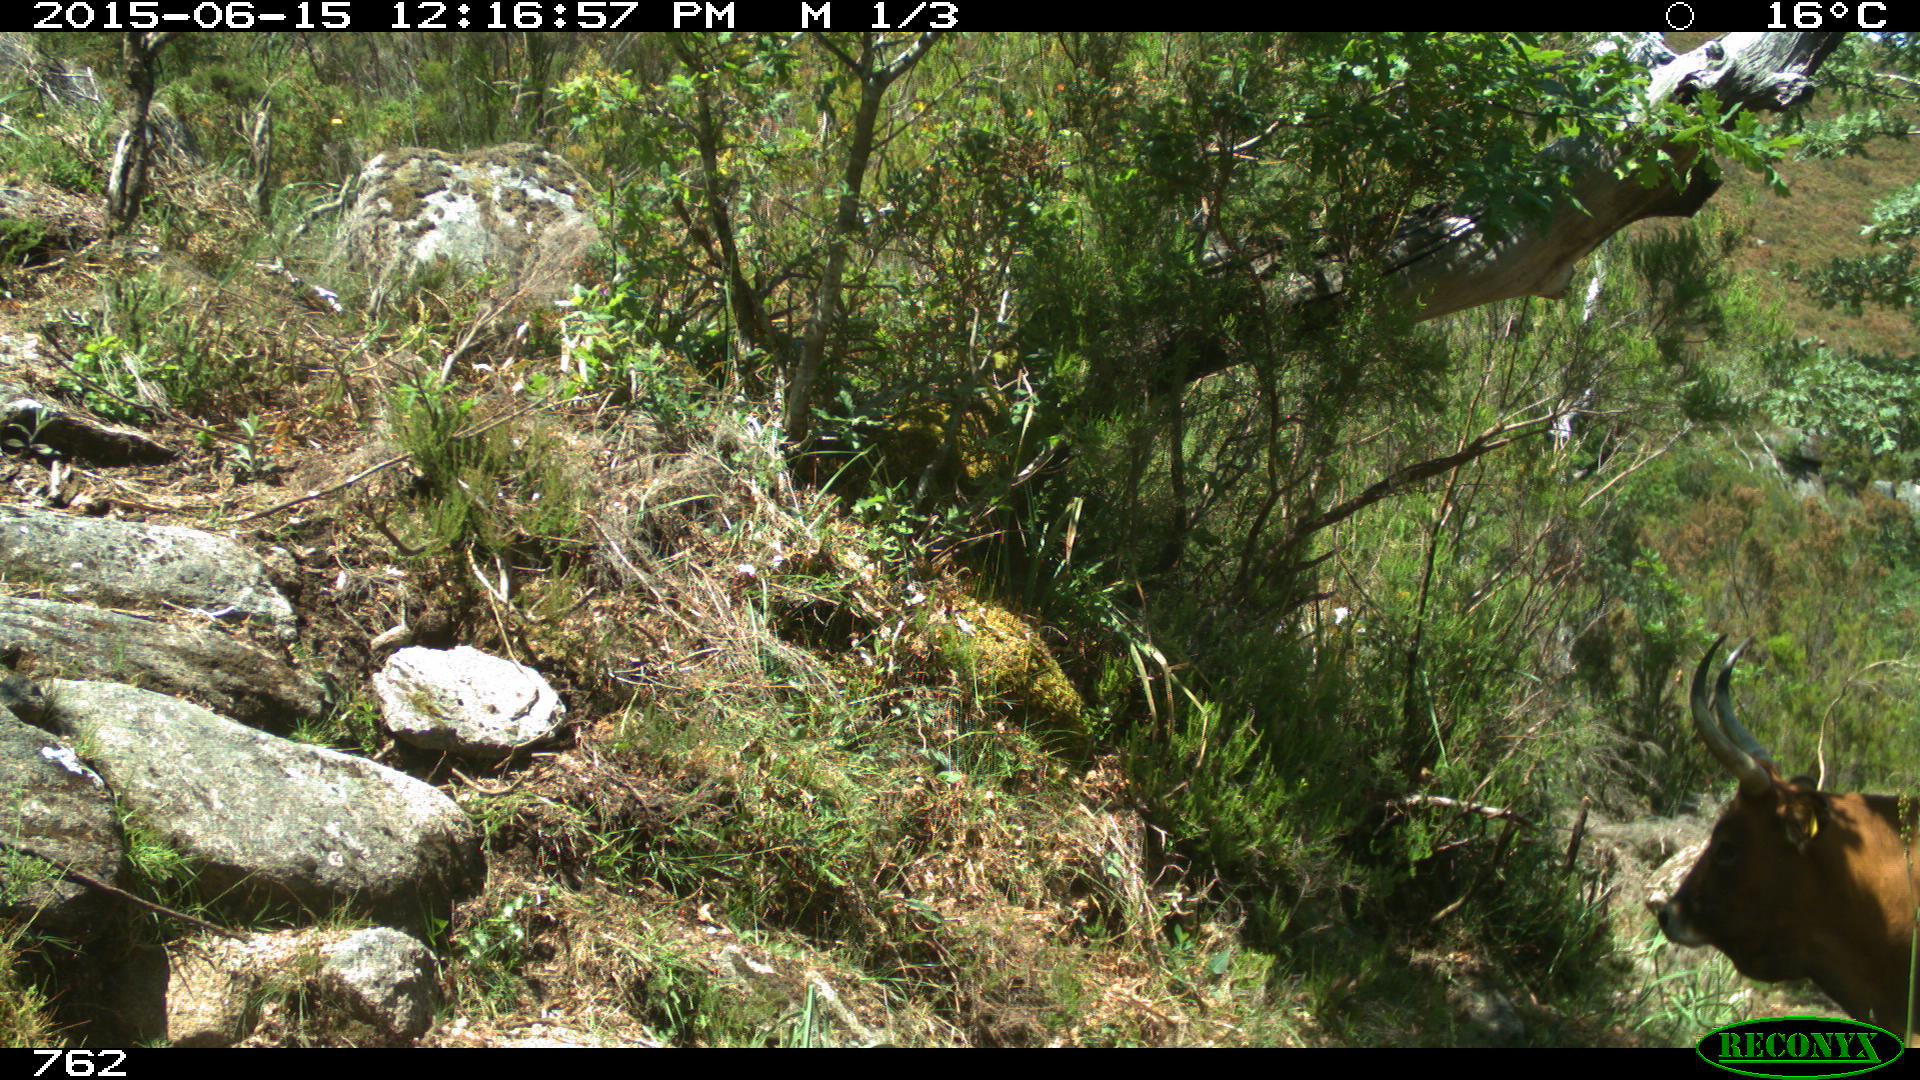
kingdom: Animalia
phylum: Chordata
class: Mammalia
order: Artiodactyla
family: Bovidae
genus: Bos
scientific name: Bos taurus
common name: Domesticated cattle
